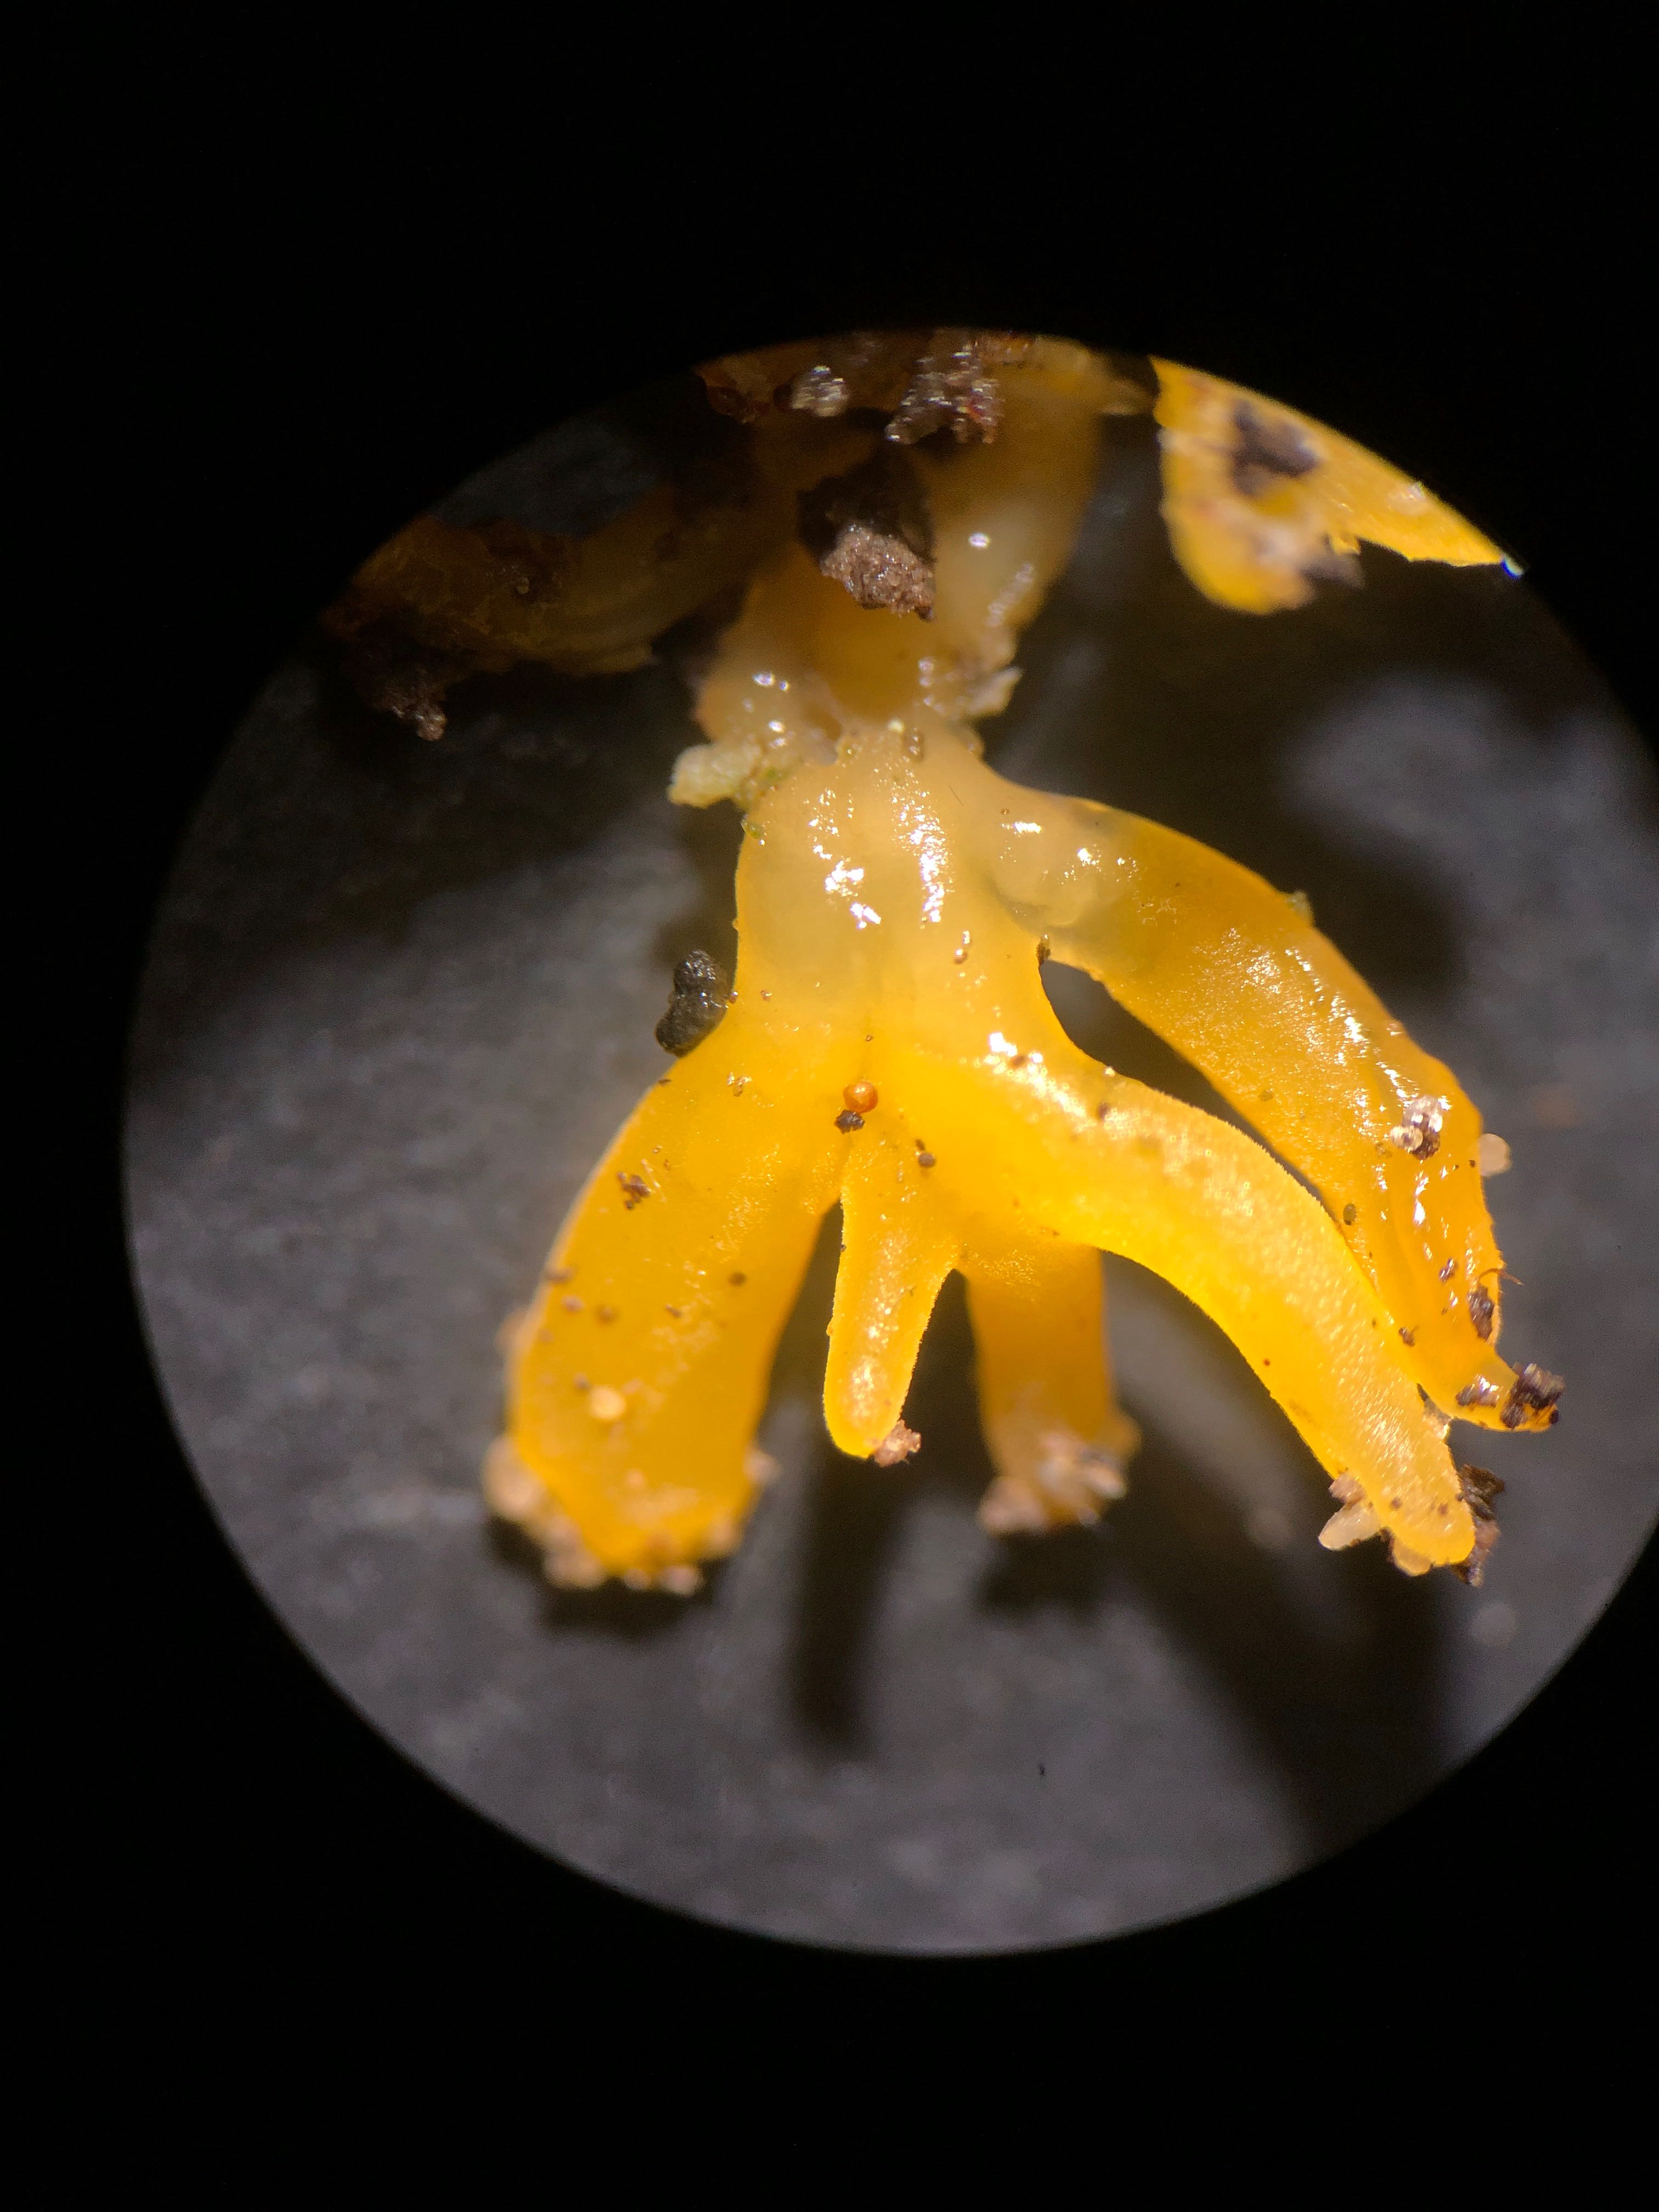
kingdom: Fungi
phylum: Basidiomycota
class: Dacrymycetes
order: Dacrymycetales
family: Dacrymycetaceae
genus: Calocera
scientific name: Calocera furcata
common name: fyrre-guldgaffel
